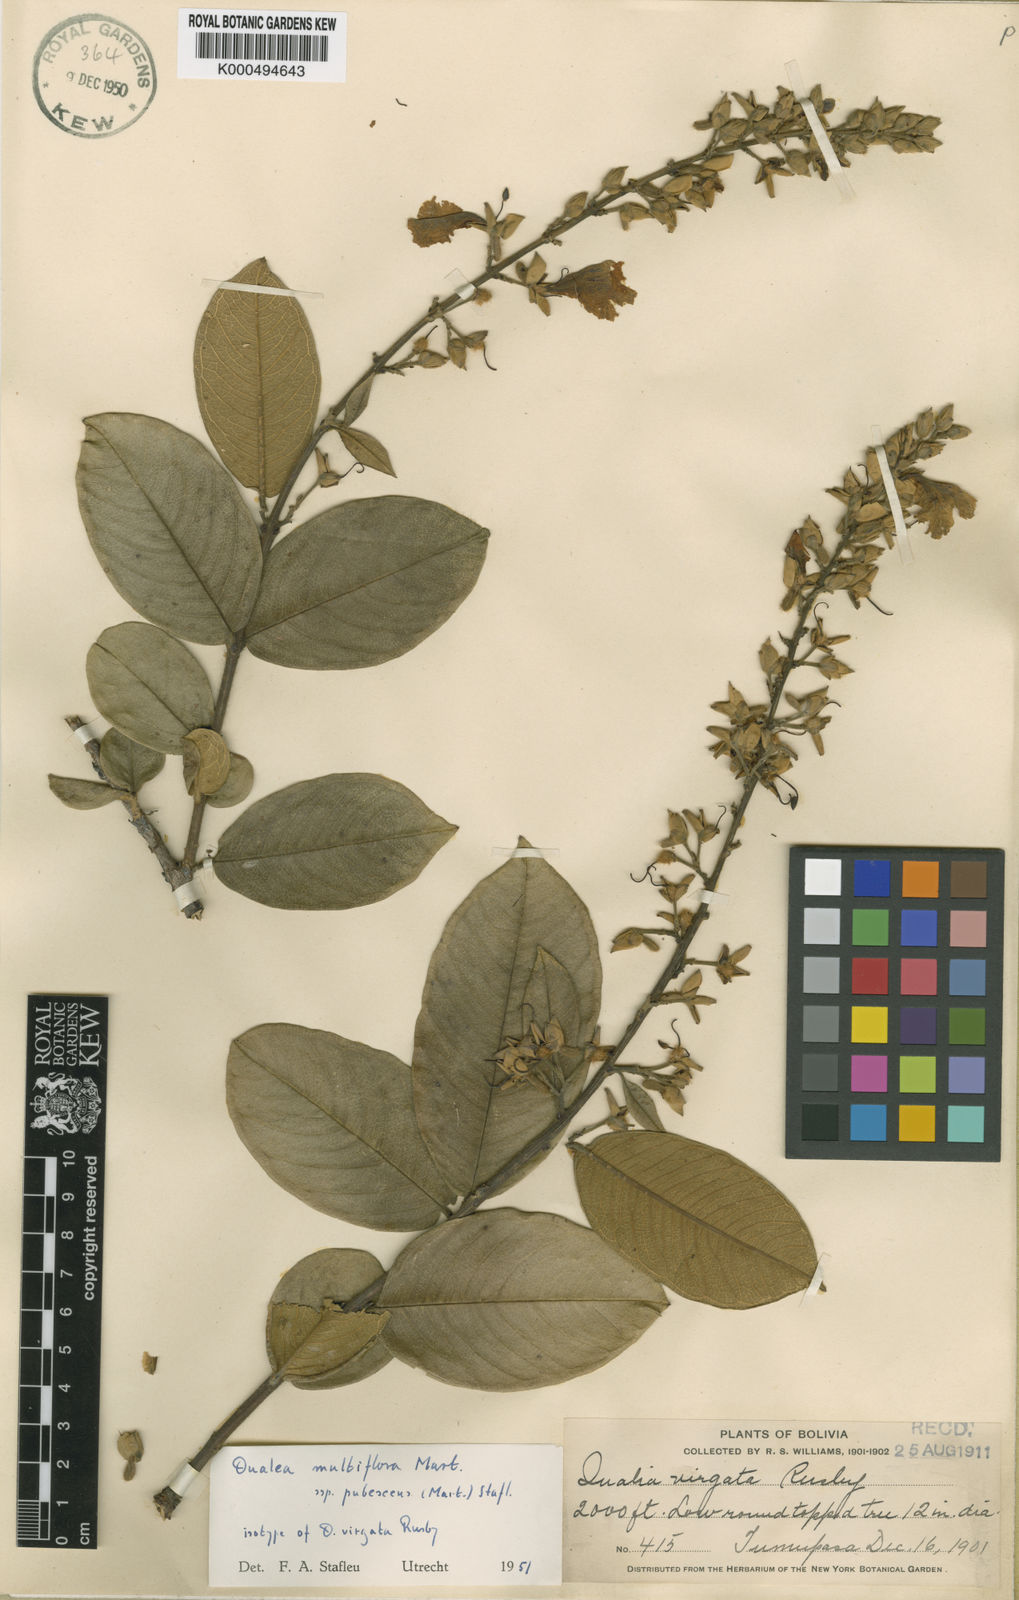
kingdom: Plantae
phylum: Tracheophyta
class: Magnoliopsida
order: Myrtales
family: Vochysiaceae
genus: Qualea
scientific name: Qualea multiflora
